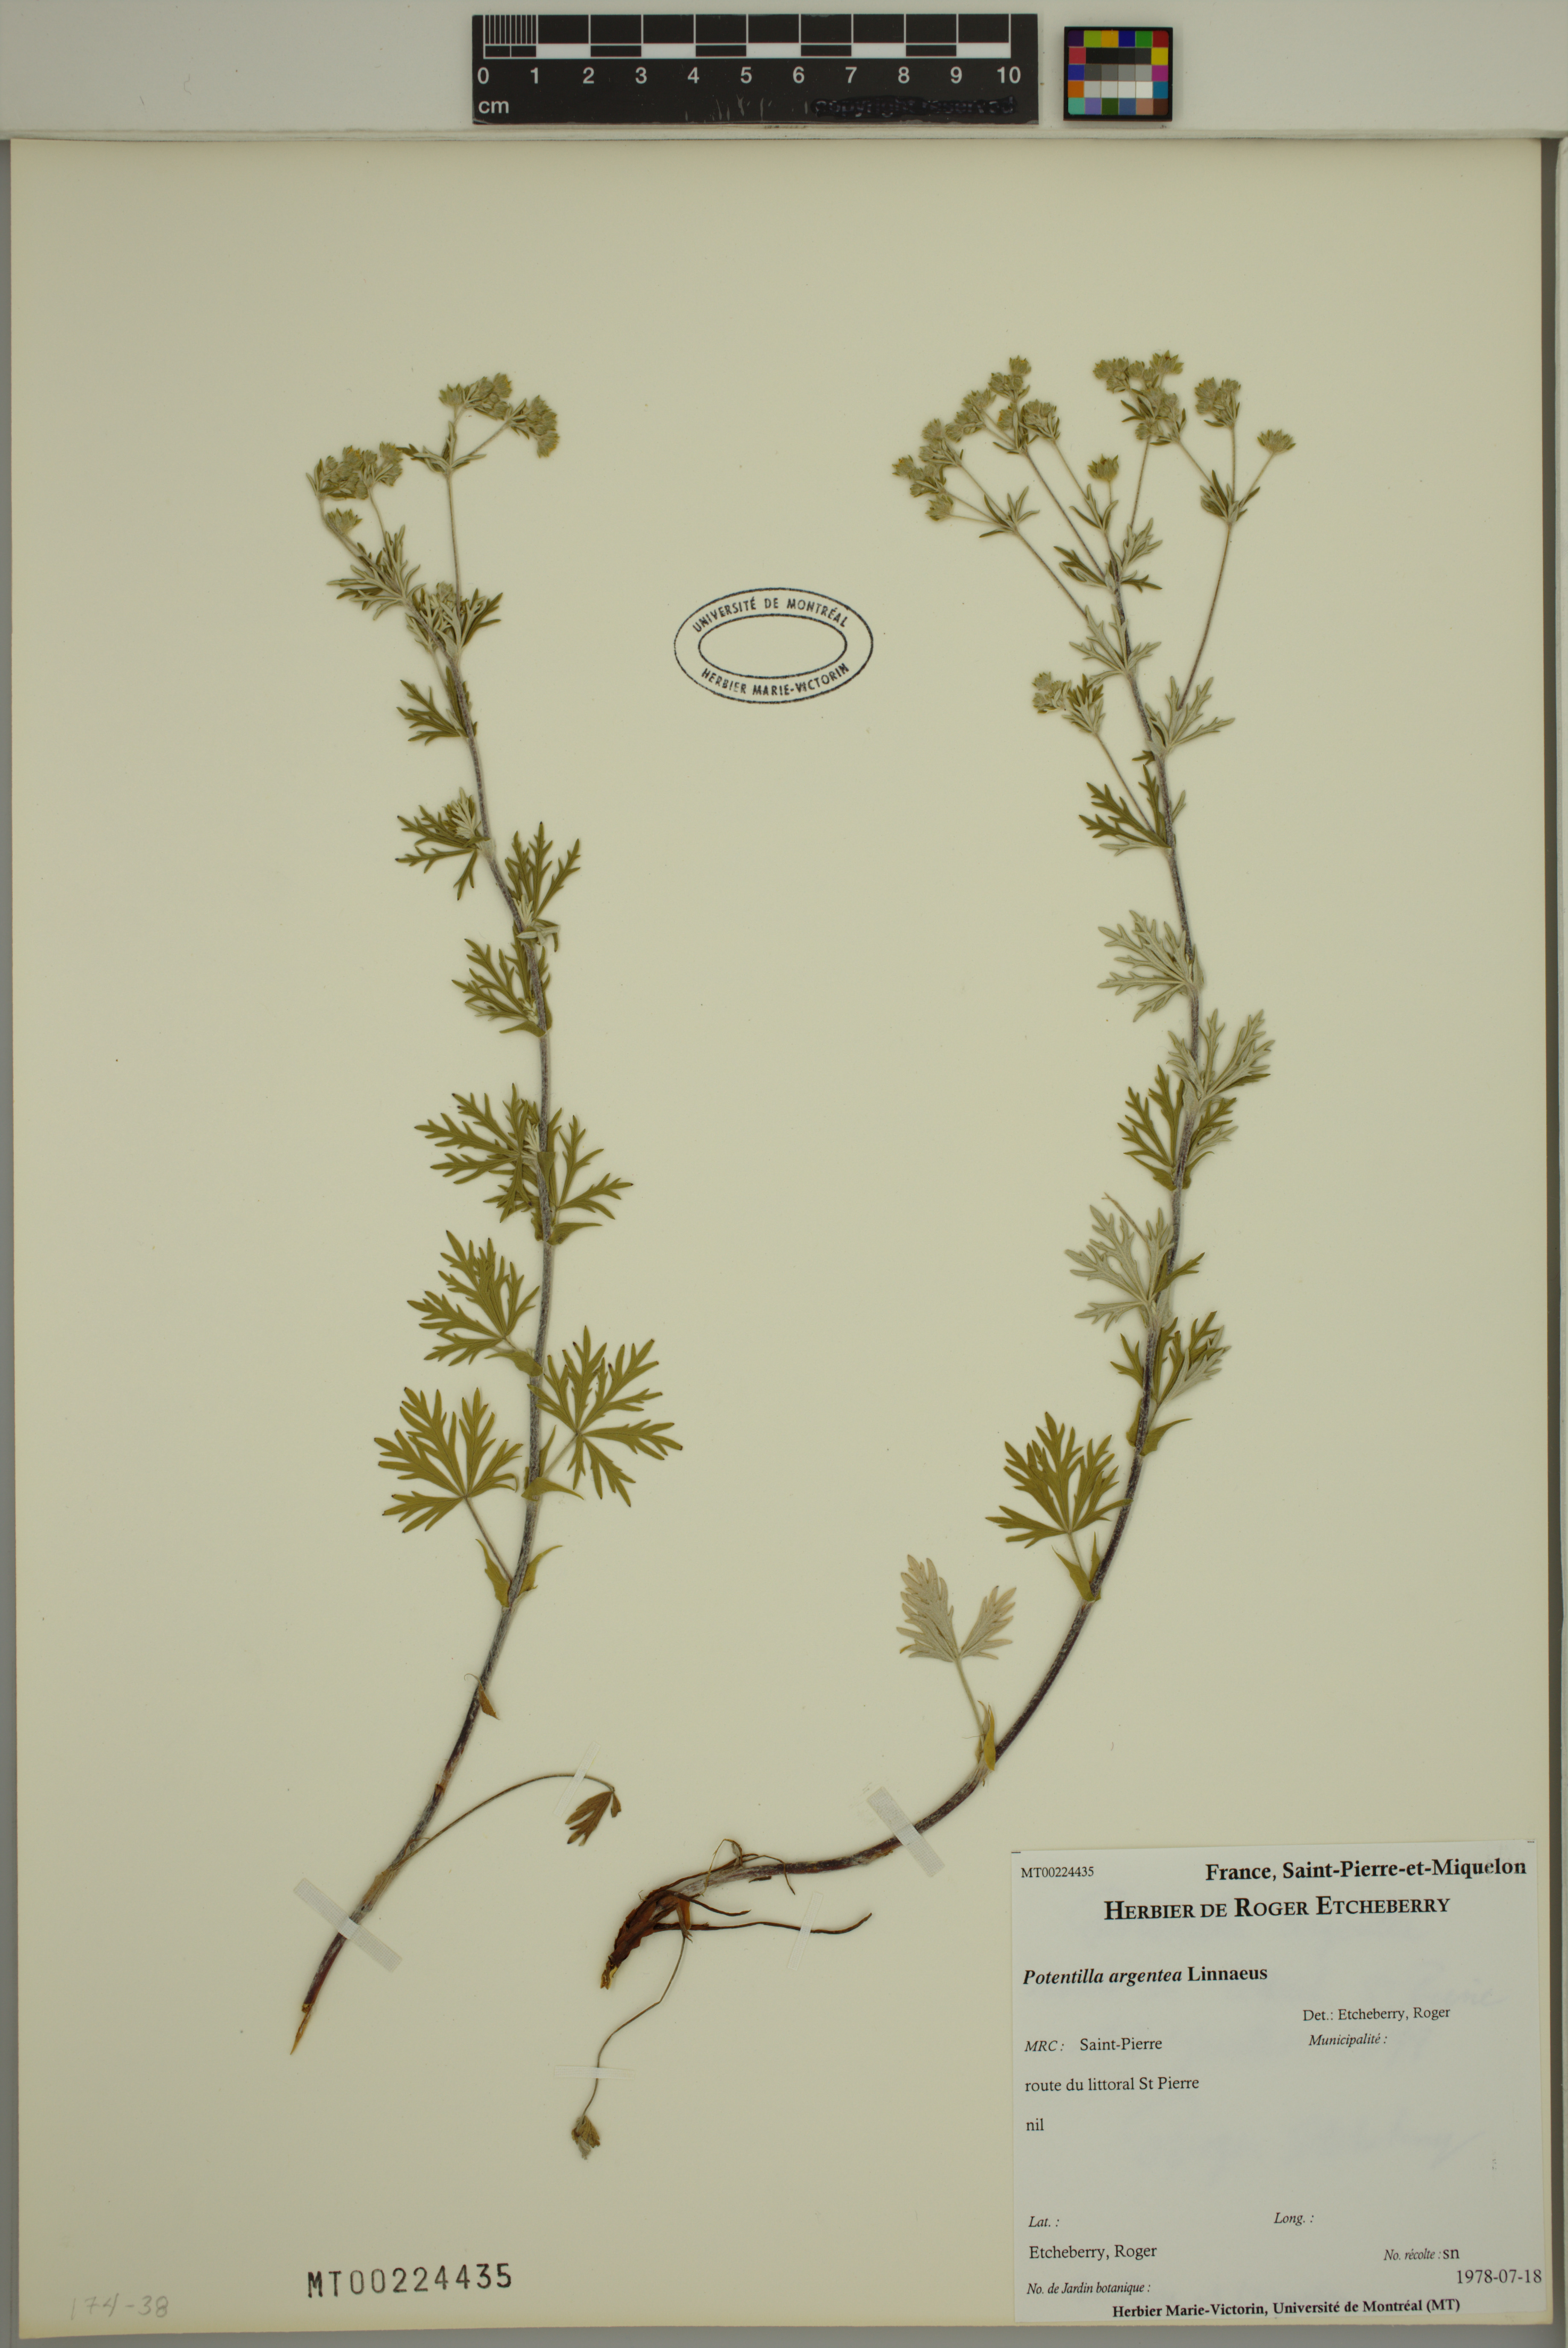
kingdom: Plantae
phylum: Tracheophyta
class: Magnoliopsida
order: Rosales
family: Rosaceae
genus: Potentilla
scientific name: Potentilla argentea
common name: Hoary cinquefoil
